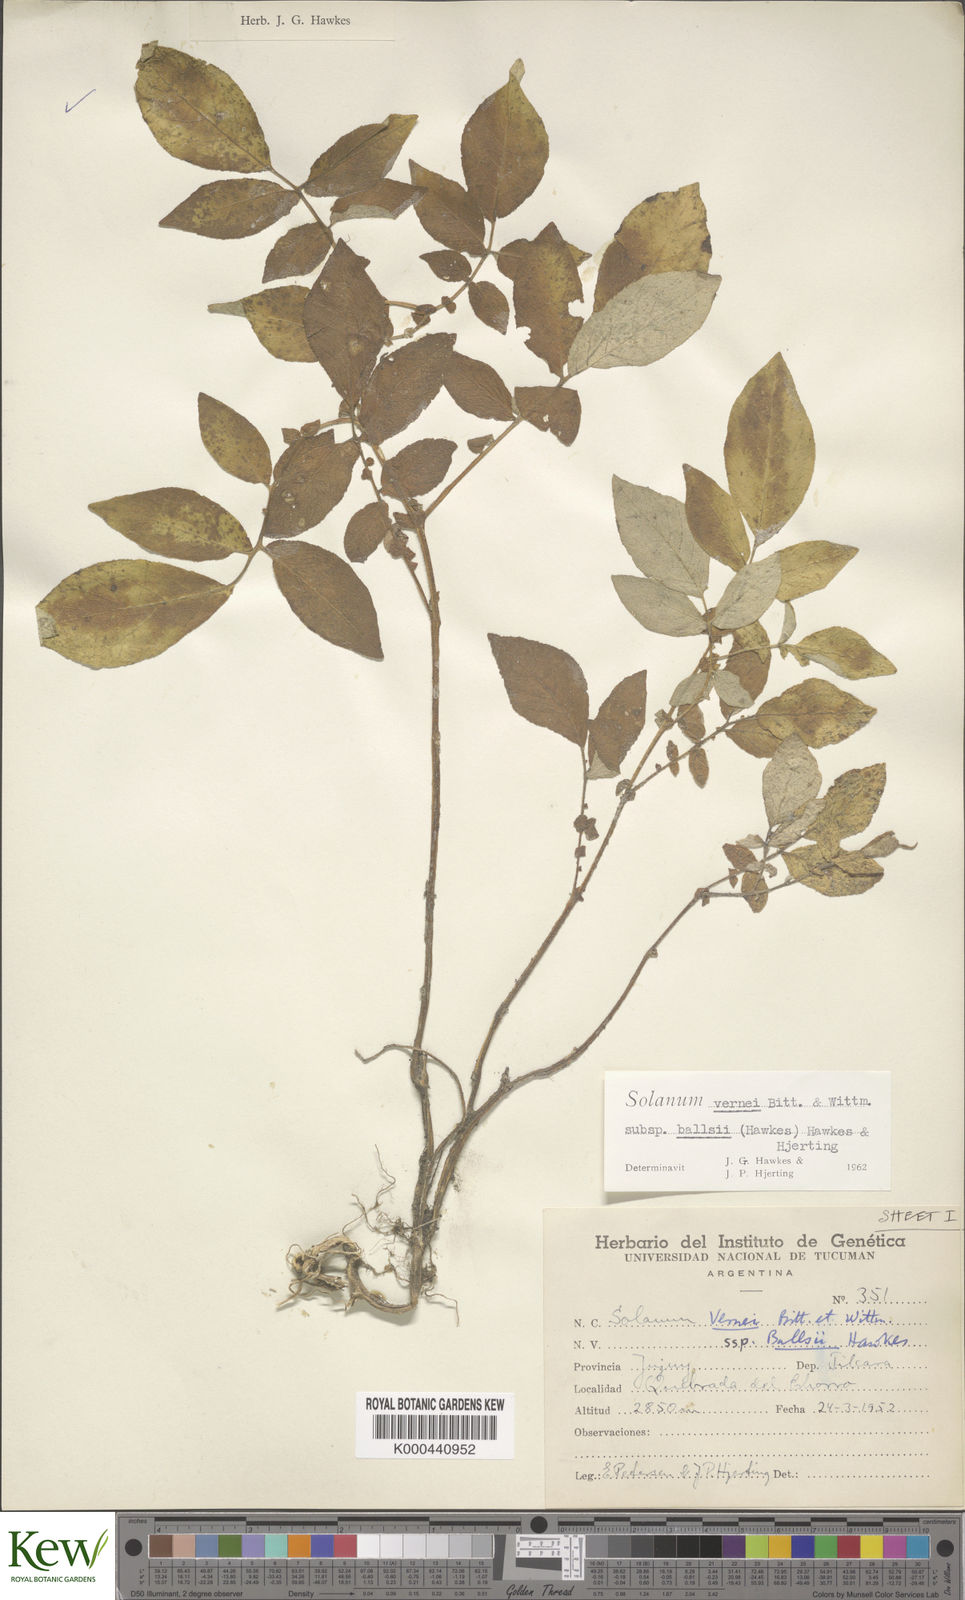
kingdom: Plantae
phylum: Tracheophyta
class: Magnoliopsida
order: Solanales
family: Solanaceae
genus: Solanum
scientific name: Solanum vernei
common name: Purple potato
